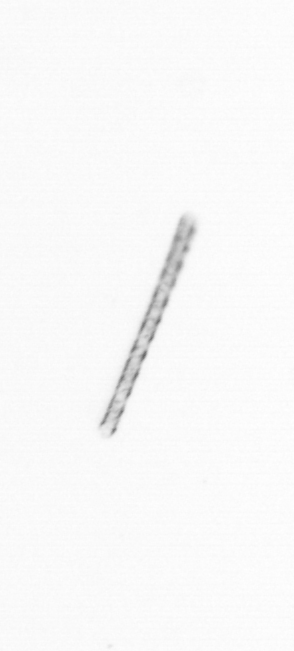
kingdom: Chromista
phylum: Ochrophyta
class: Bacillariophyceae
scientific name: Bacillariophyceae
